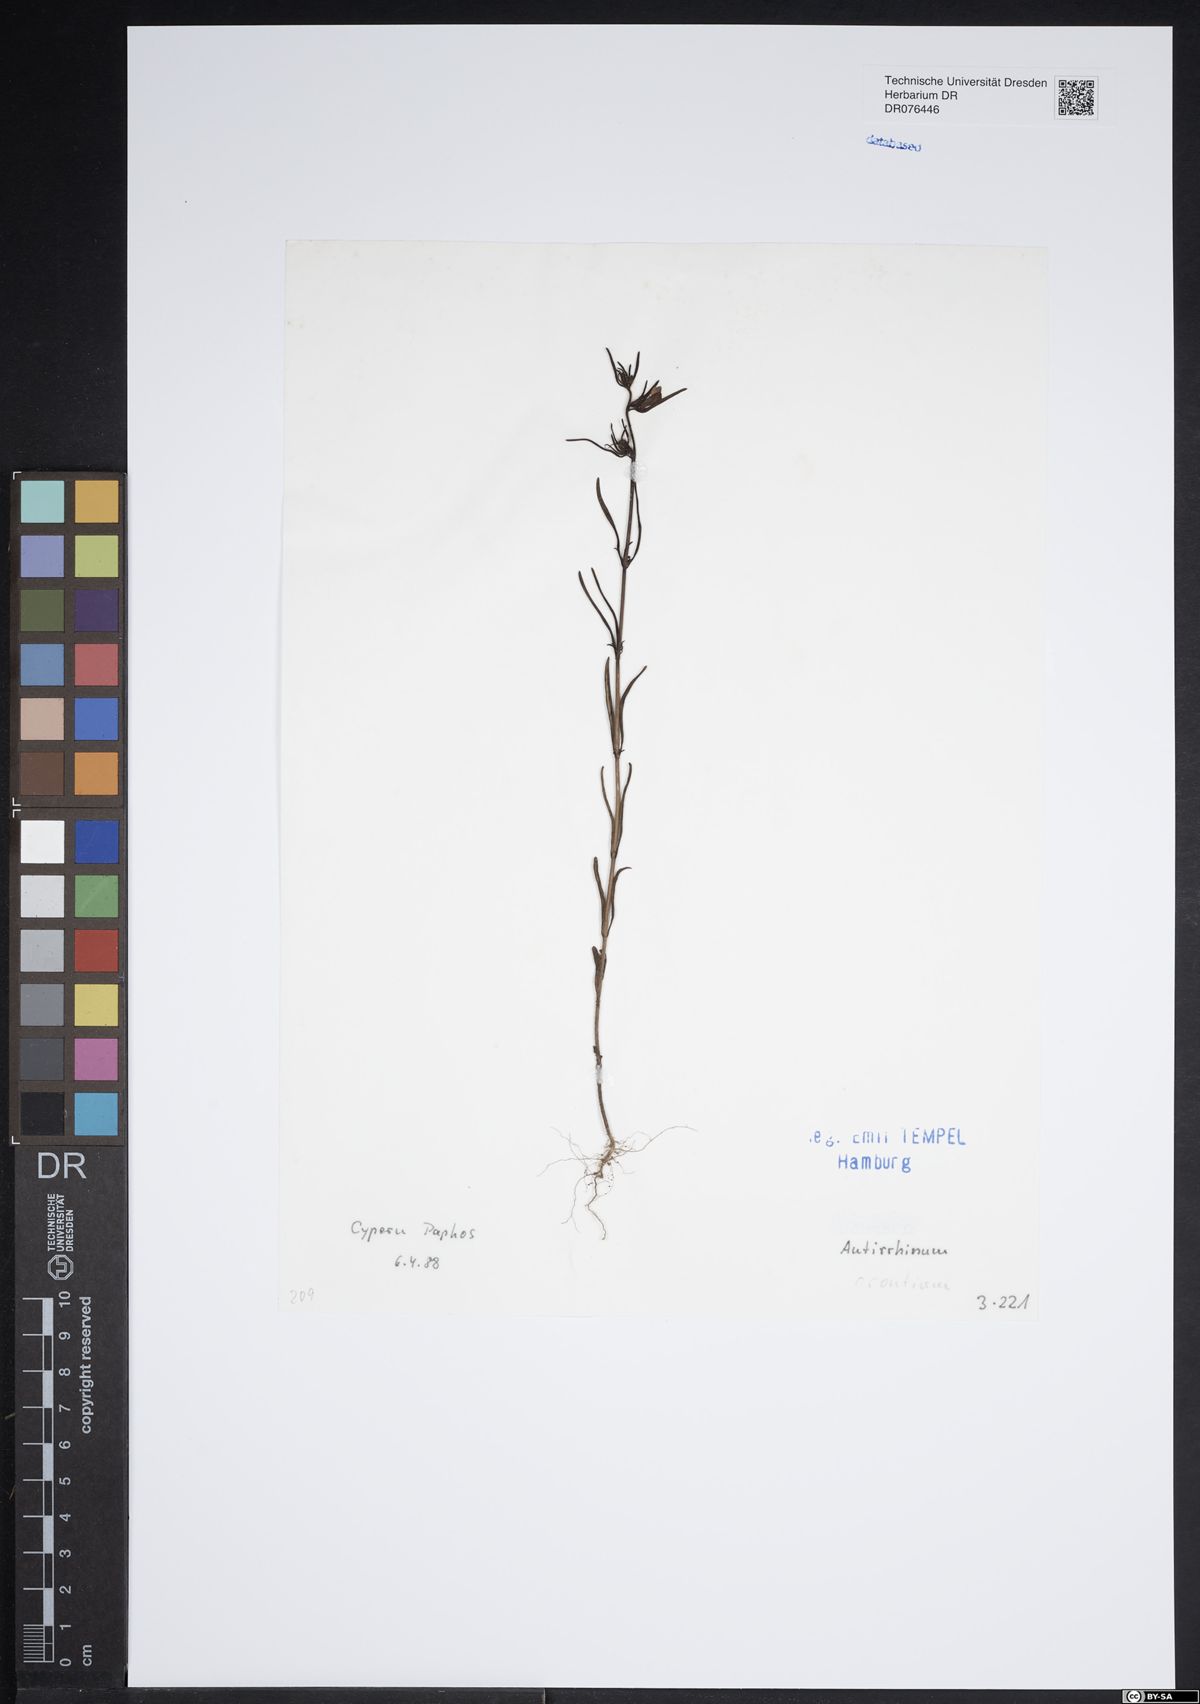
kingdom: Plantae
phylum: Tracheophyta
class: Magnoliopsida
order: Lamiales
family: Plantaginaceae
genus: Misopates
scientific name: Misopates orontium
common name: Weasel's-snout
